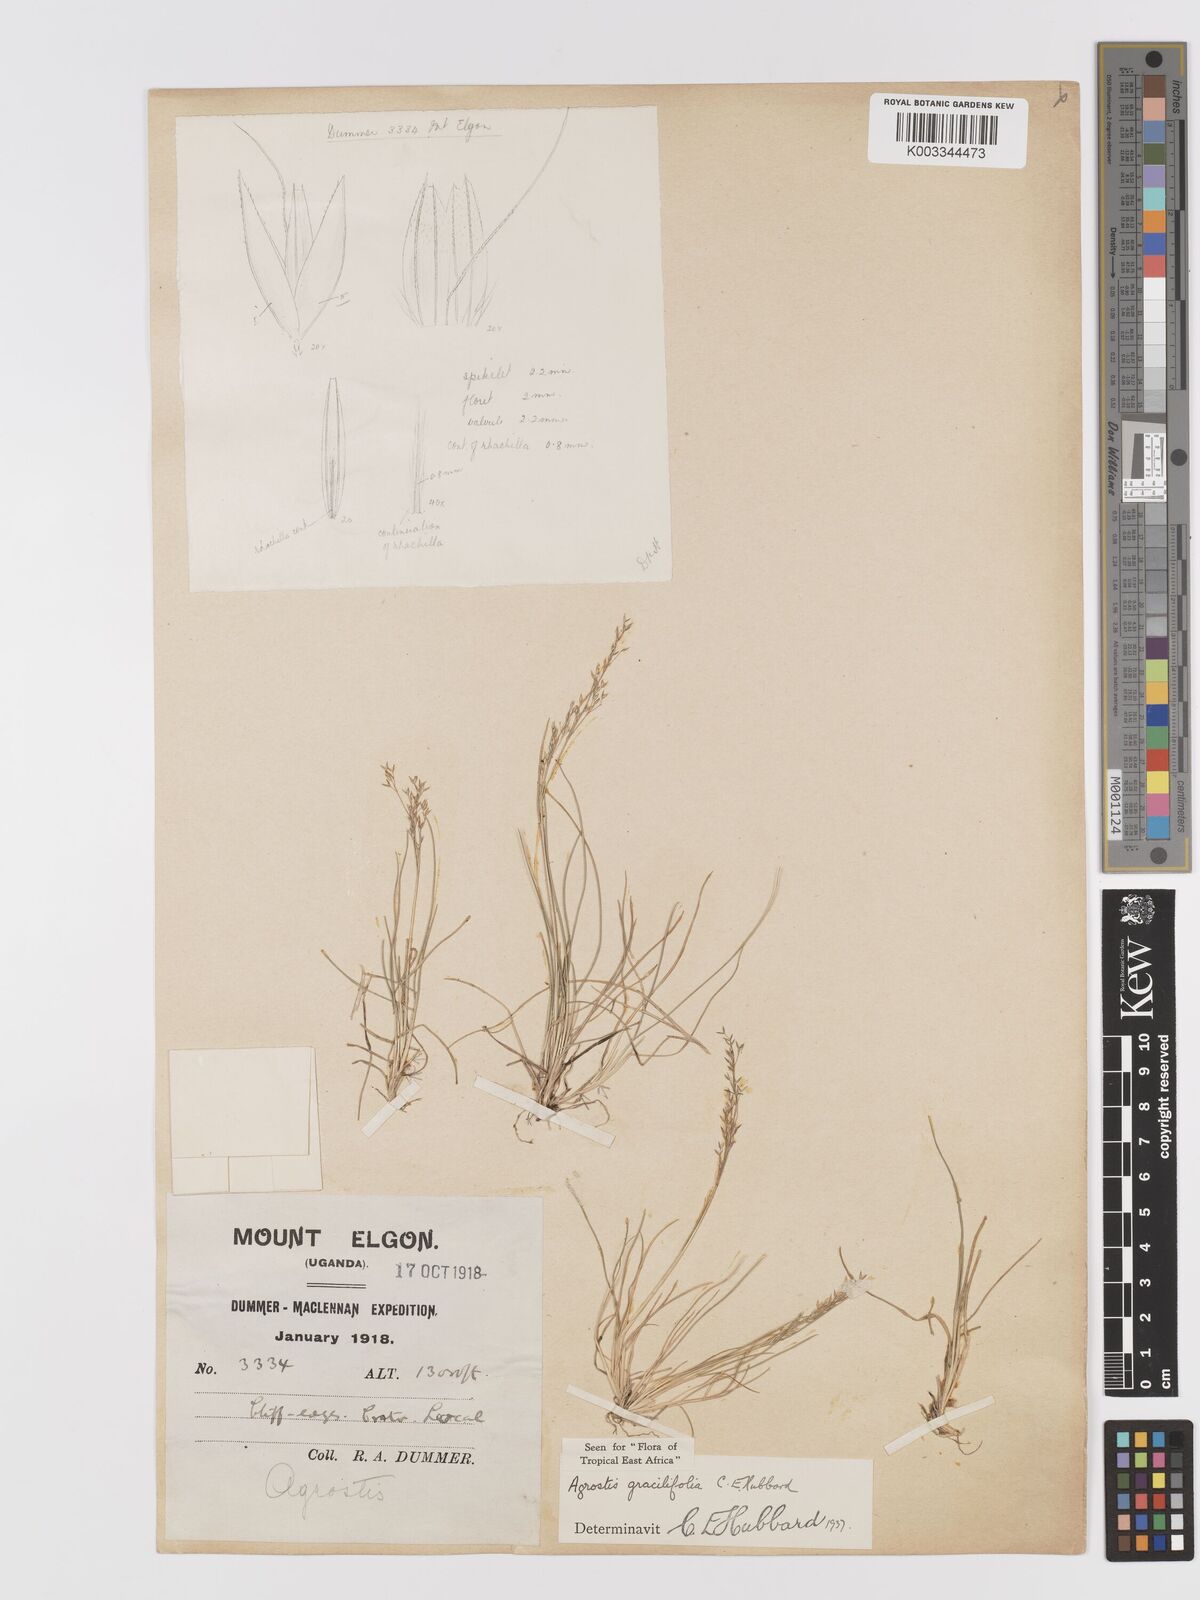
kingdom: Plantae
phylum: Tracheophyta
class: Liliopsida
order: Poales
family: Poaceae
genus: Agrostis
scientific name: Agrostis gracilifolia
